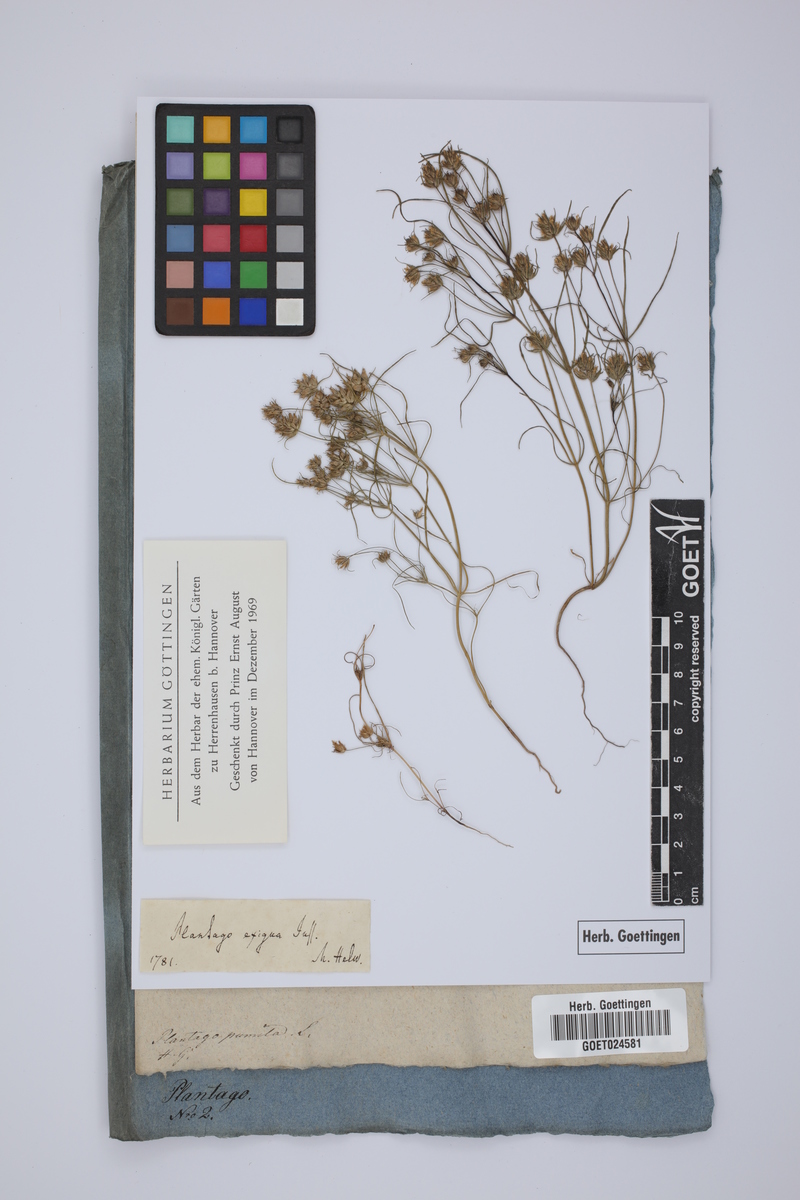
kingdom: Plantae
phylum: Tracheophyta
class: Magnoliopsida
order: Lamiales
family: Plantaginaceae
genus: Plantago
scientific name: Plantago exigua
